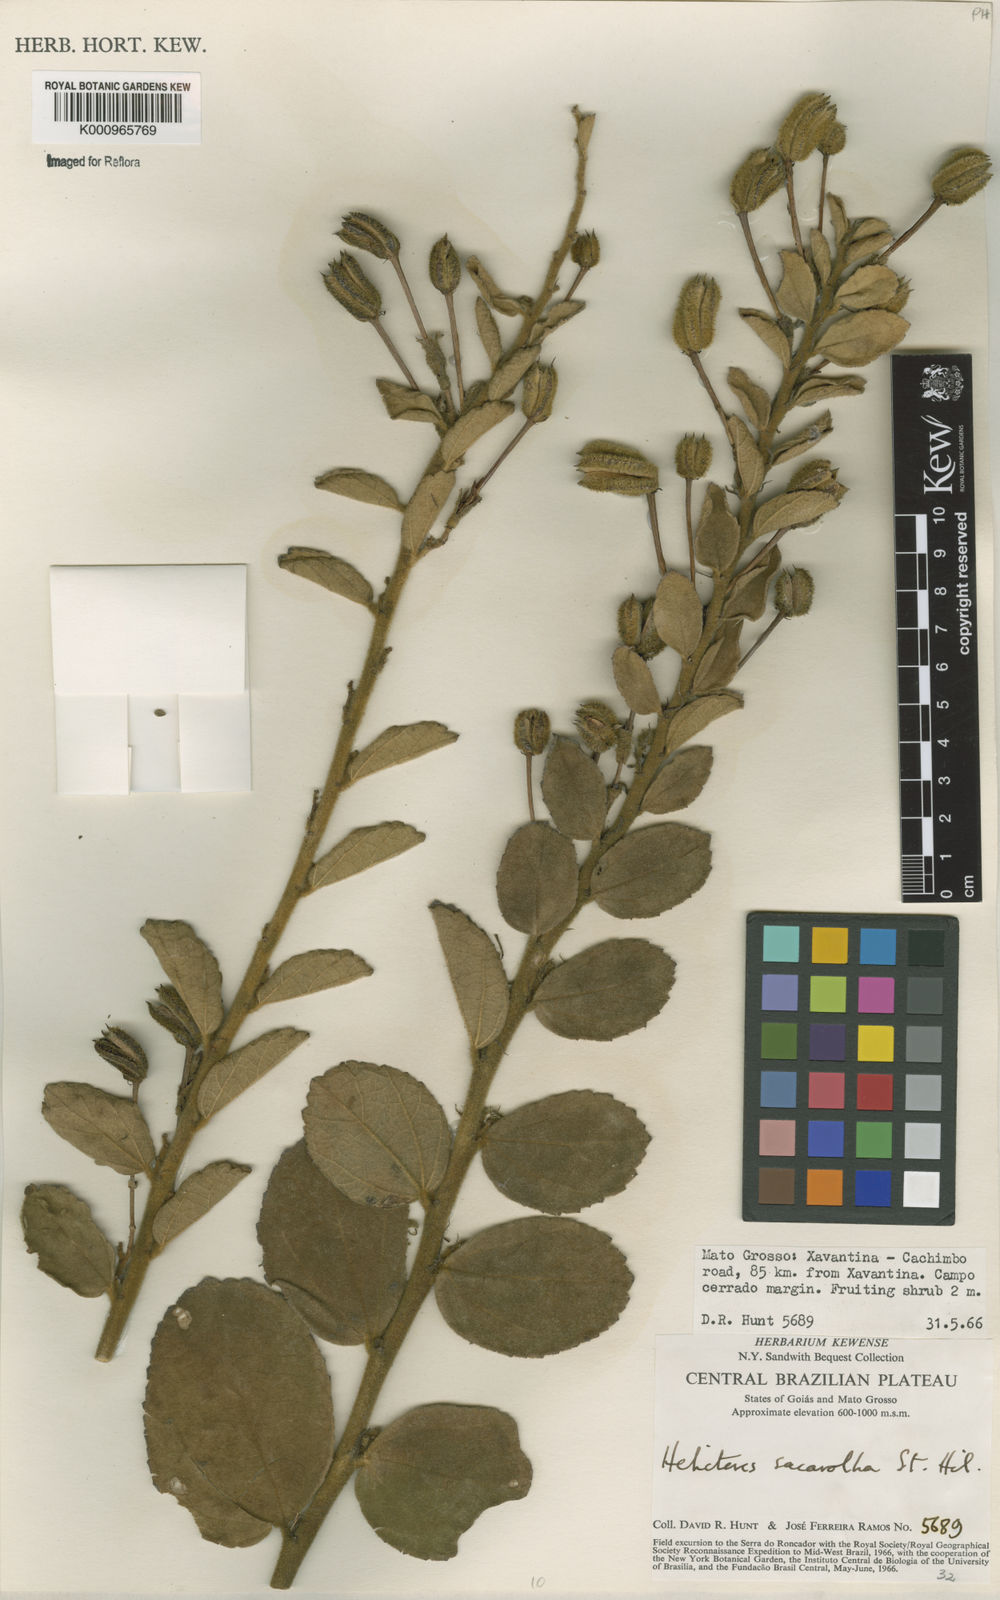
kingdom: Plantae
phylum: Tracheophyta
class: Magnoliopsida
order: Malvales
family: Malvaceae
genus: Helicteres
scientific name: Helicteres
